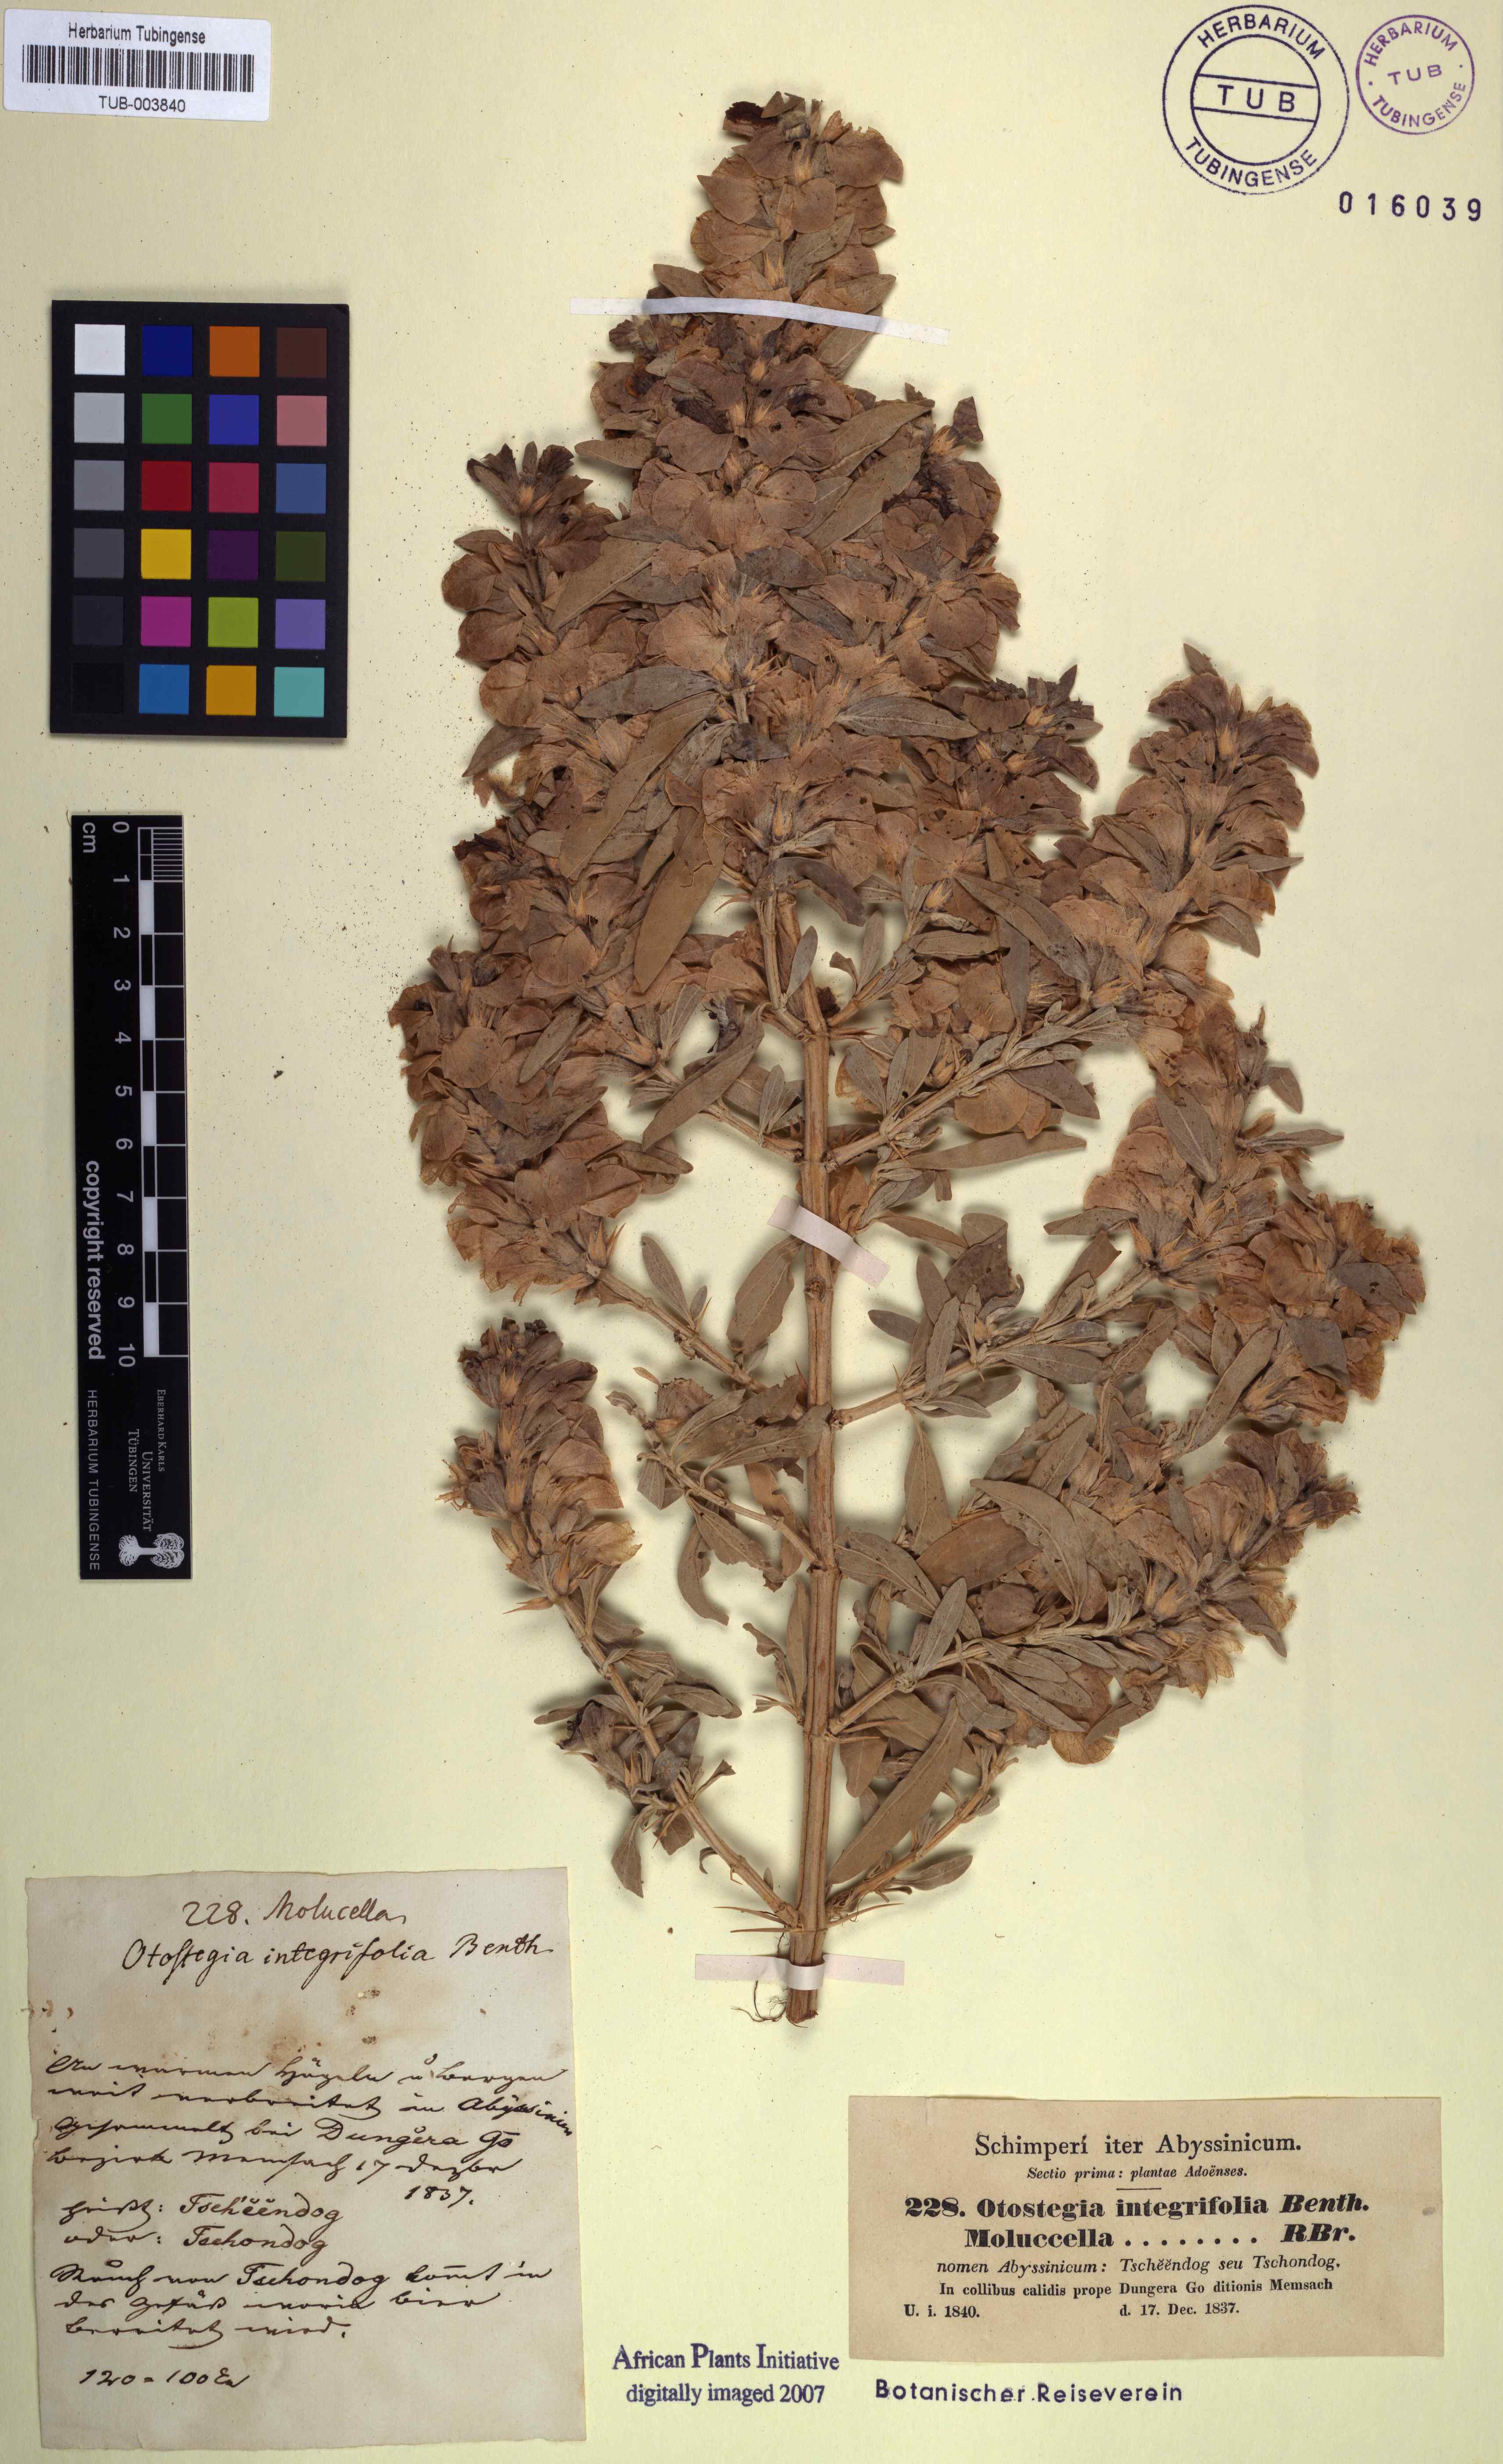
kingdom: Plantae
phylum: Tracheophyta
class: Magnoliopsida
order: Lamiales
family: Lamiaceae
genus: Rydingia
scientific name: Rydingia integrifolia
